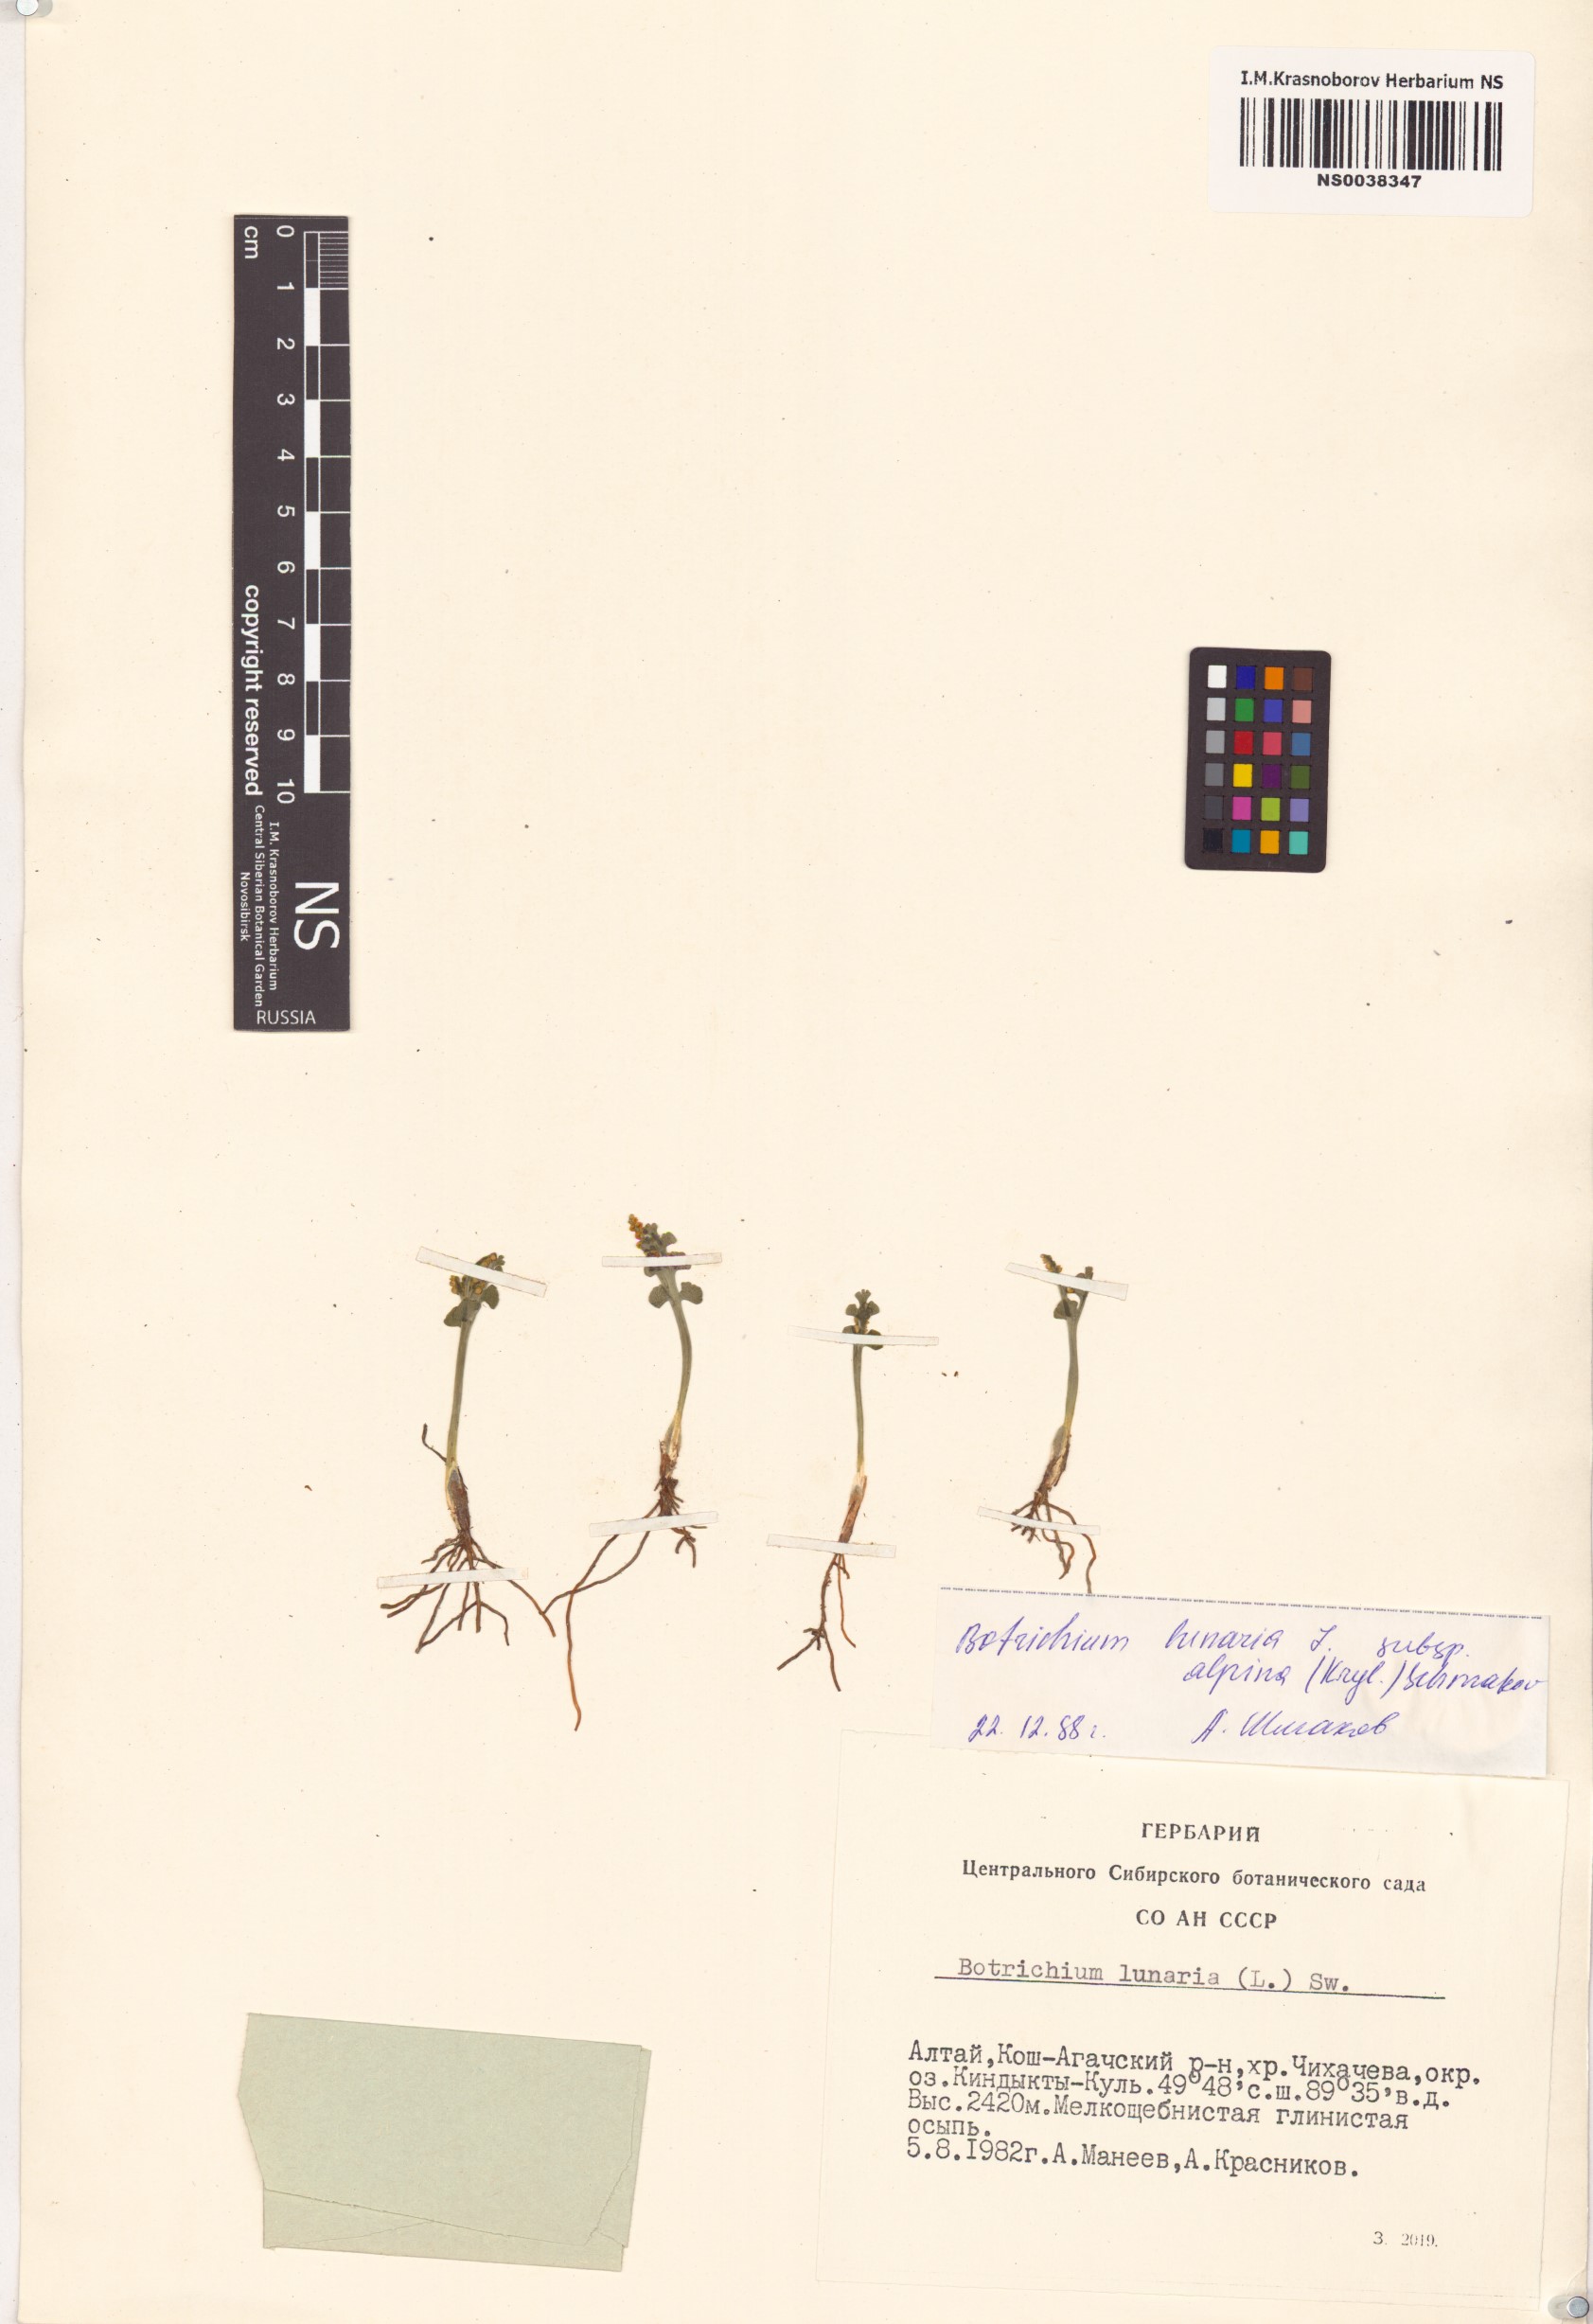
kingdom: Plantae
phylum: Tracheophyta
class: Polypodiopsida
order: Ophioglossales
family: Ophioglossaceae
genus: Botrychium
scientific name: Botrychium lunaria
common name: Moonwort
